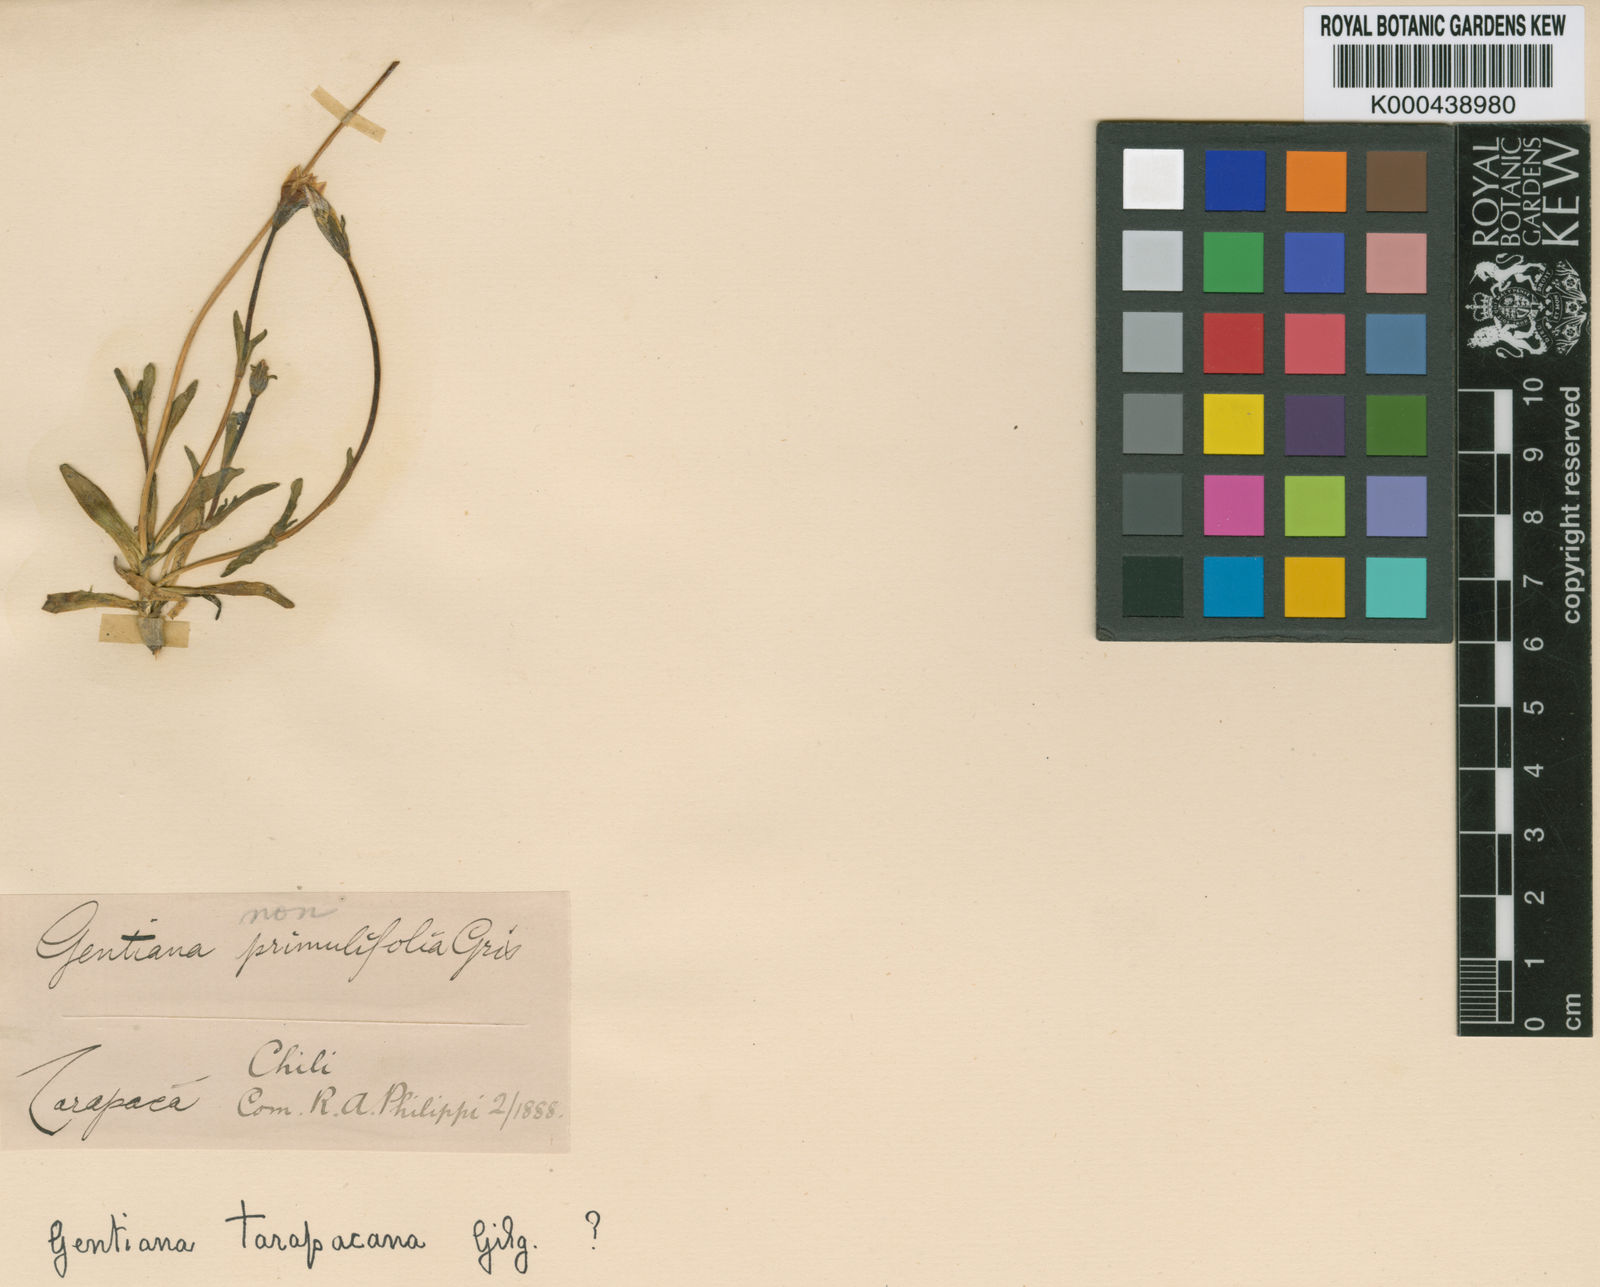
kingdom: Plantae
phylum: Tracheophyta
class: Magnoliopsida
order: Gentianales
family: Gentianaceae
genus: Gentianella
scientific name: Gentianella tarapacana
